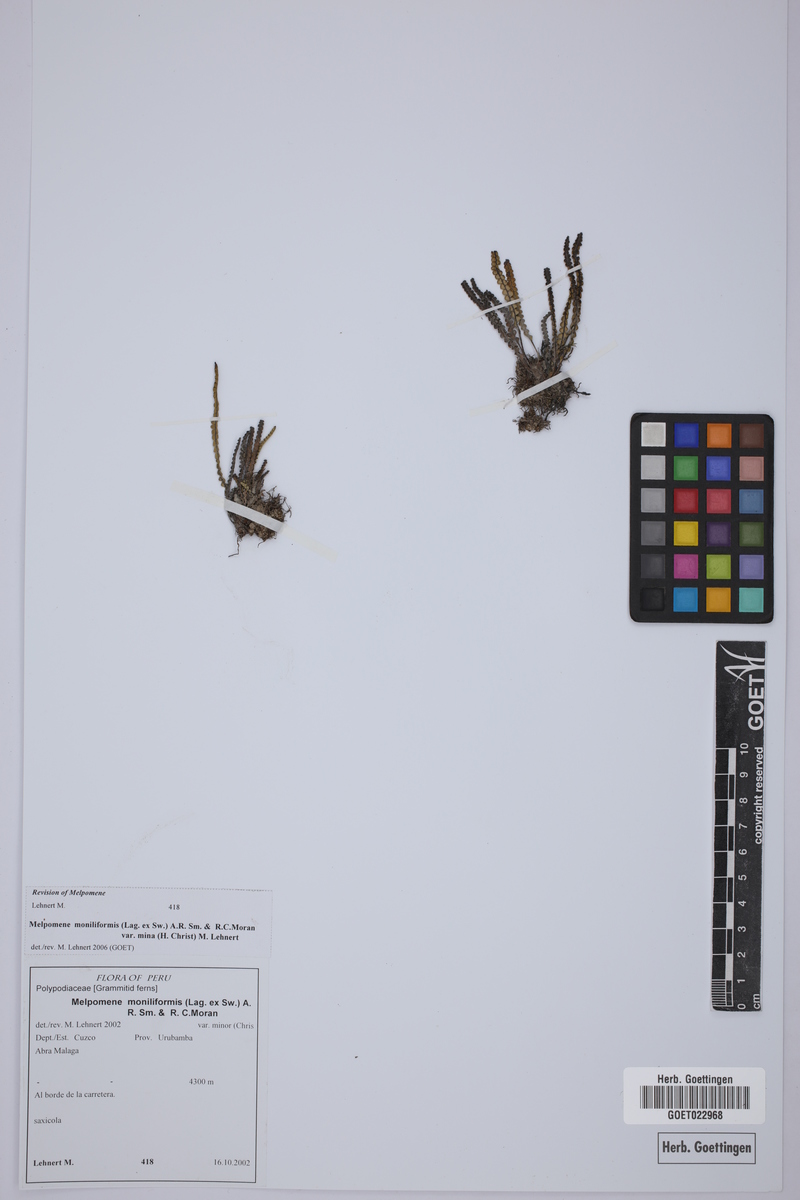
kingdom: Plantae
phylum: Tracheophyta
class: Polypodiopsida
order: Polypodiales
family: Polypodiaceae
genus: Melpomene
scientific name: Melpomene moniliformis
